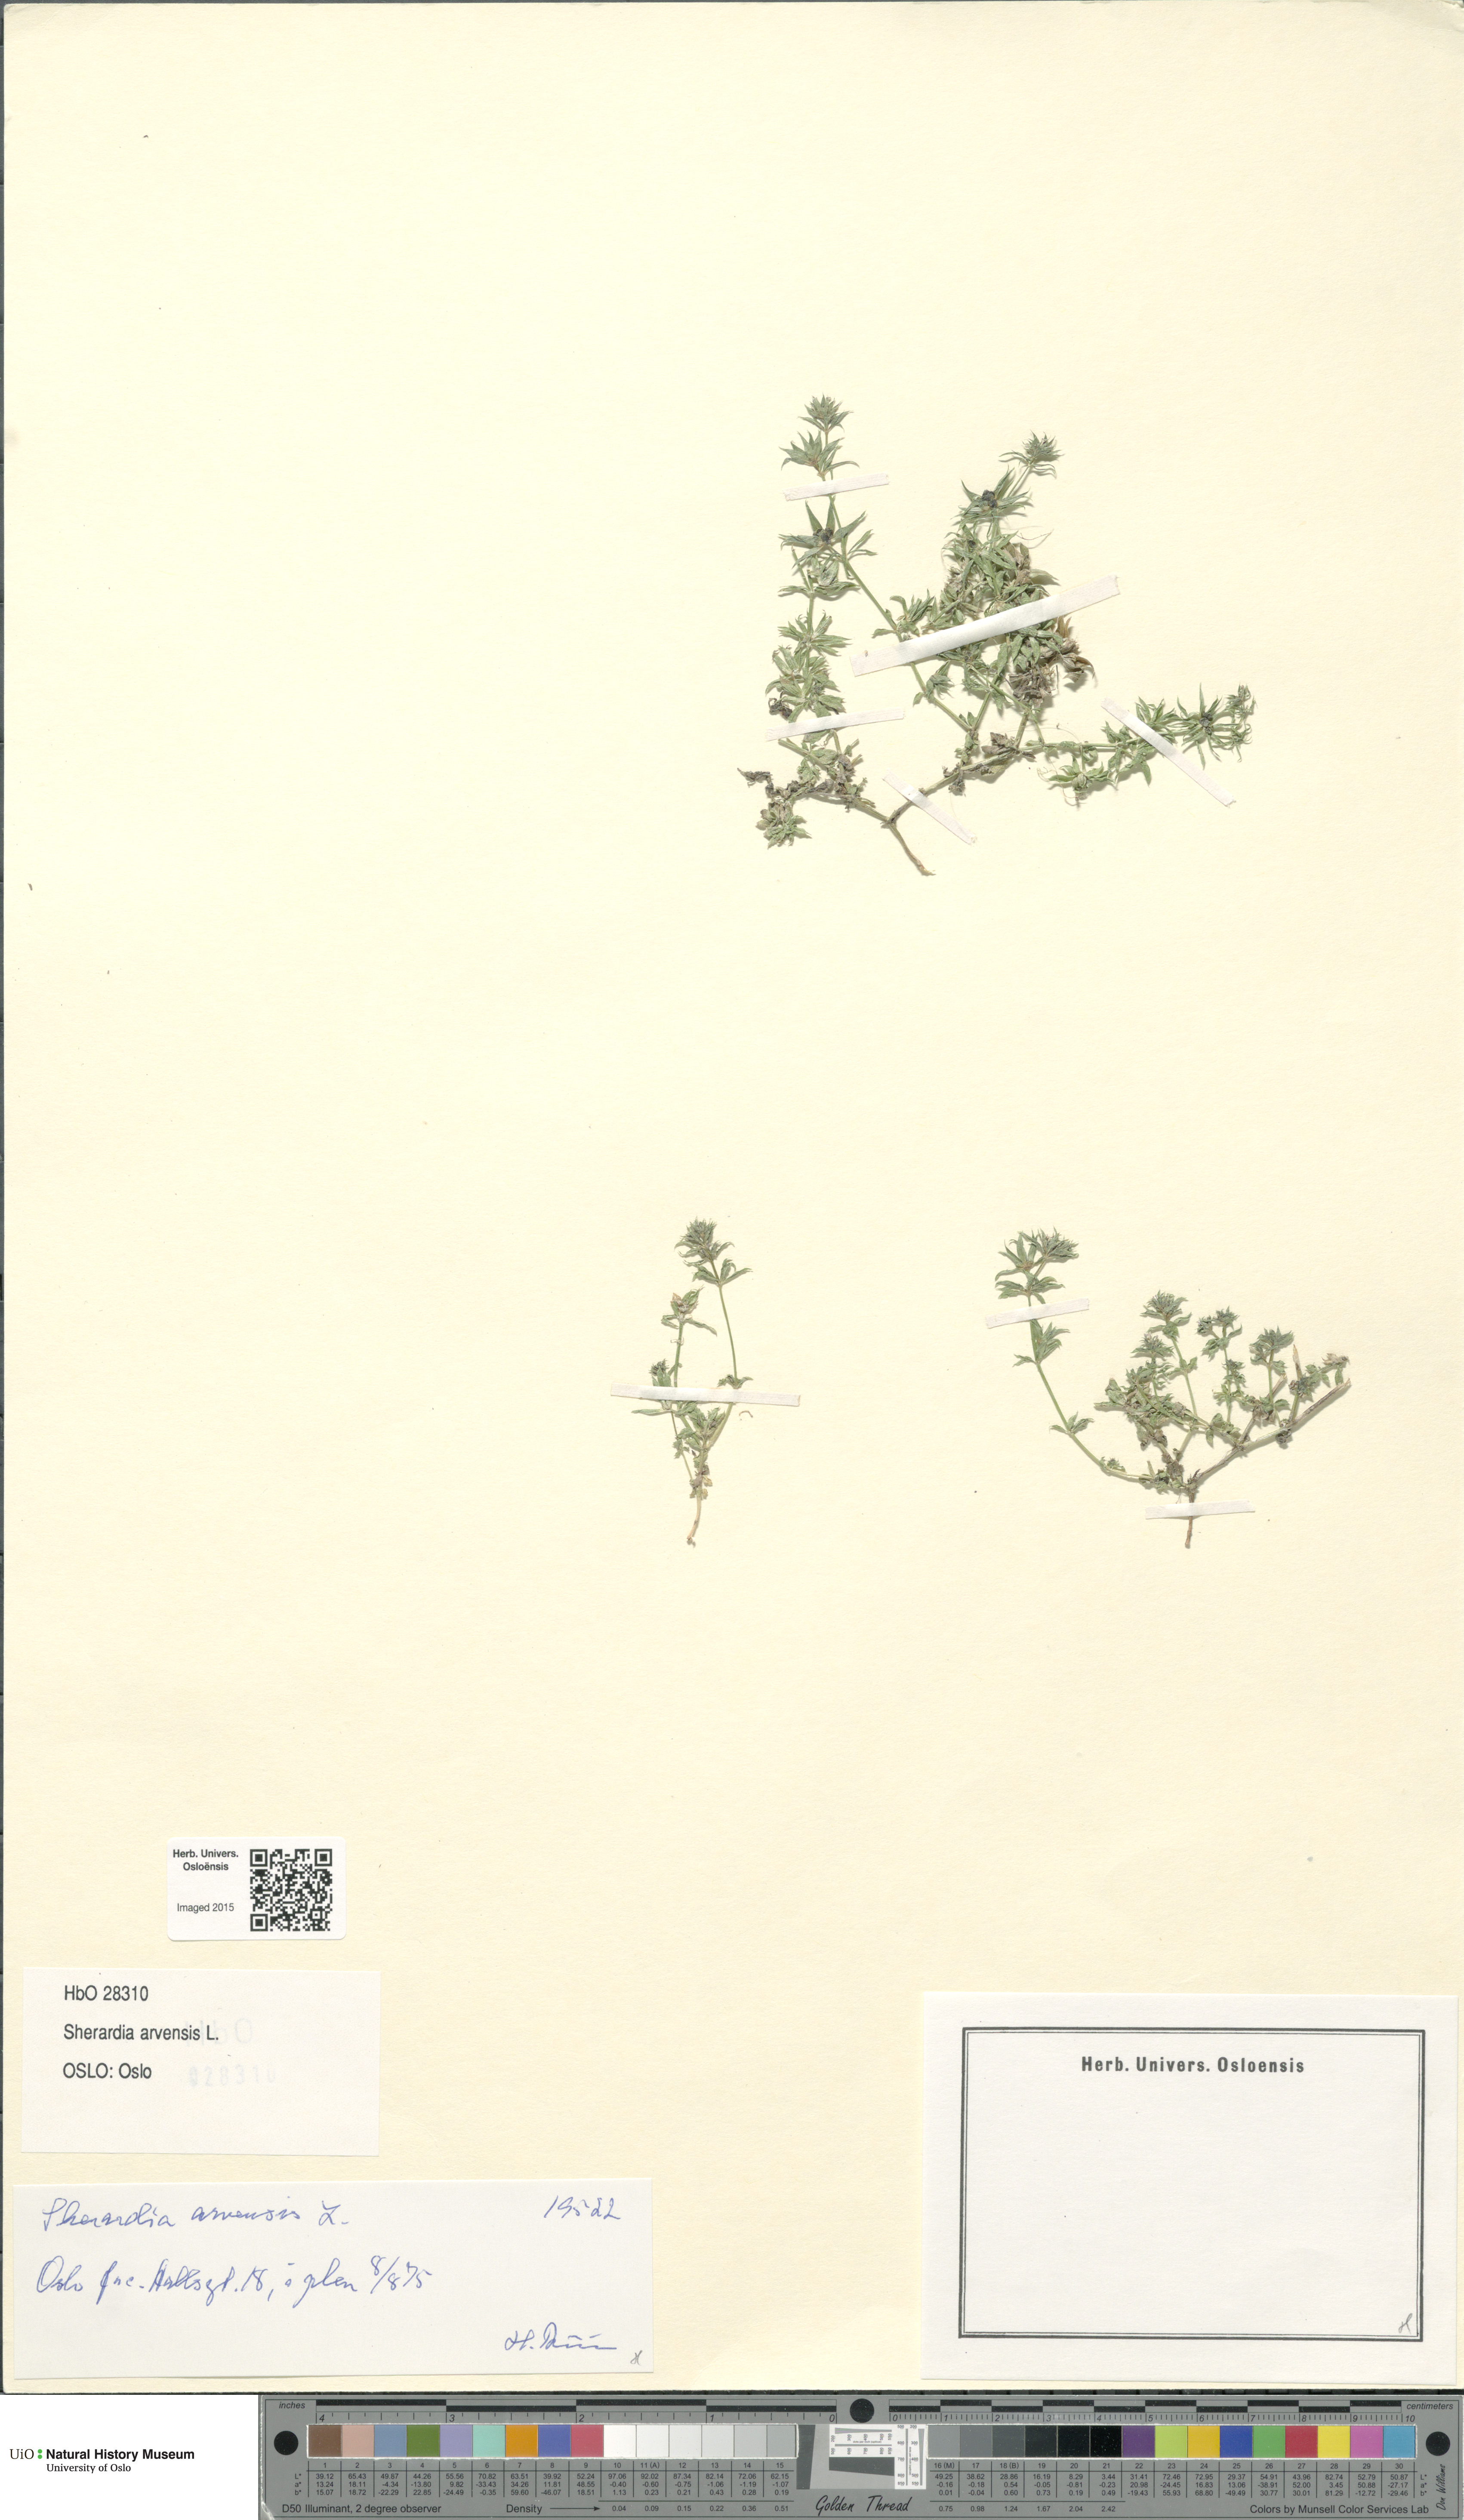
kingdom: Plantae
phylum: Tracheophyta
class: Magnoliopsida
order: Gentianales
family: Rubiaceae
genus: Sherardia
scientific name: Sherardia arvensis
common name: Field madder
